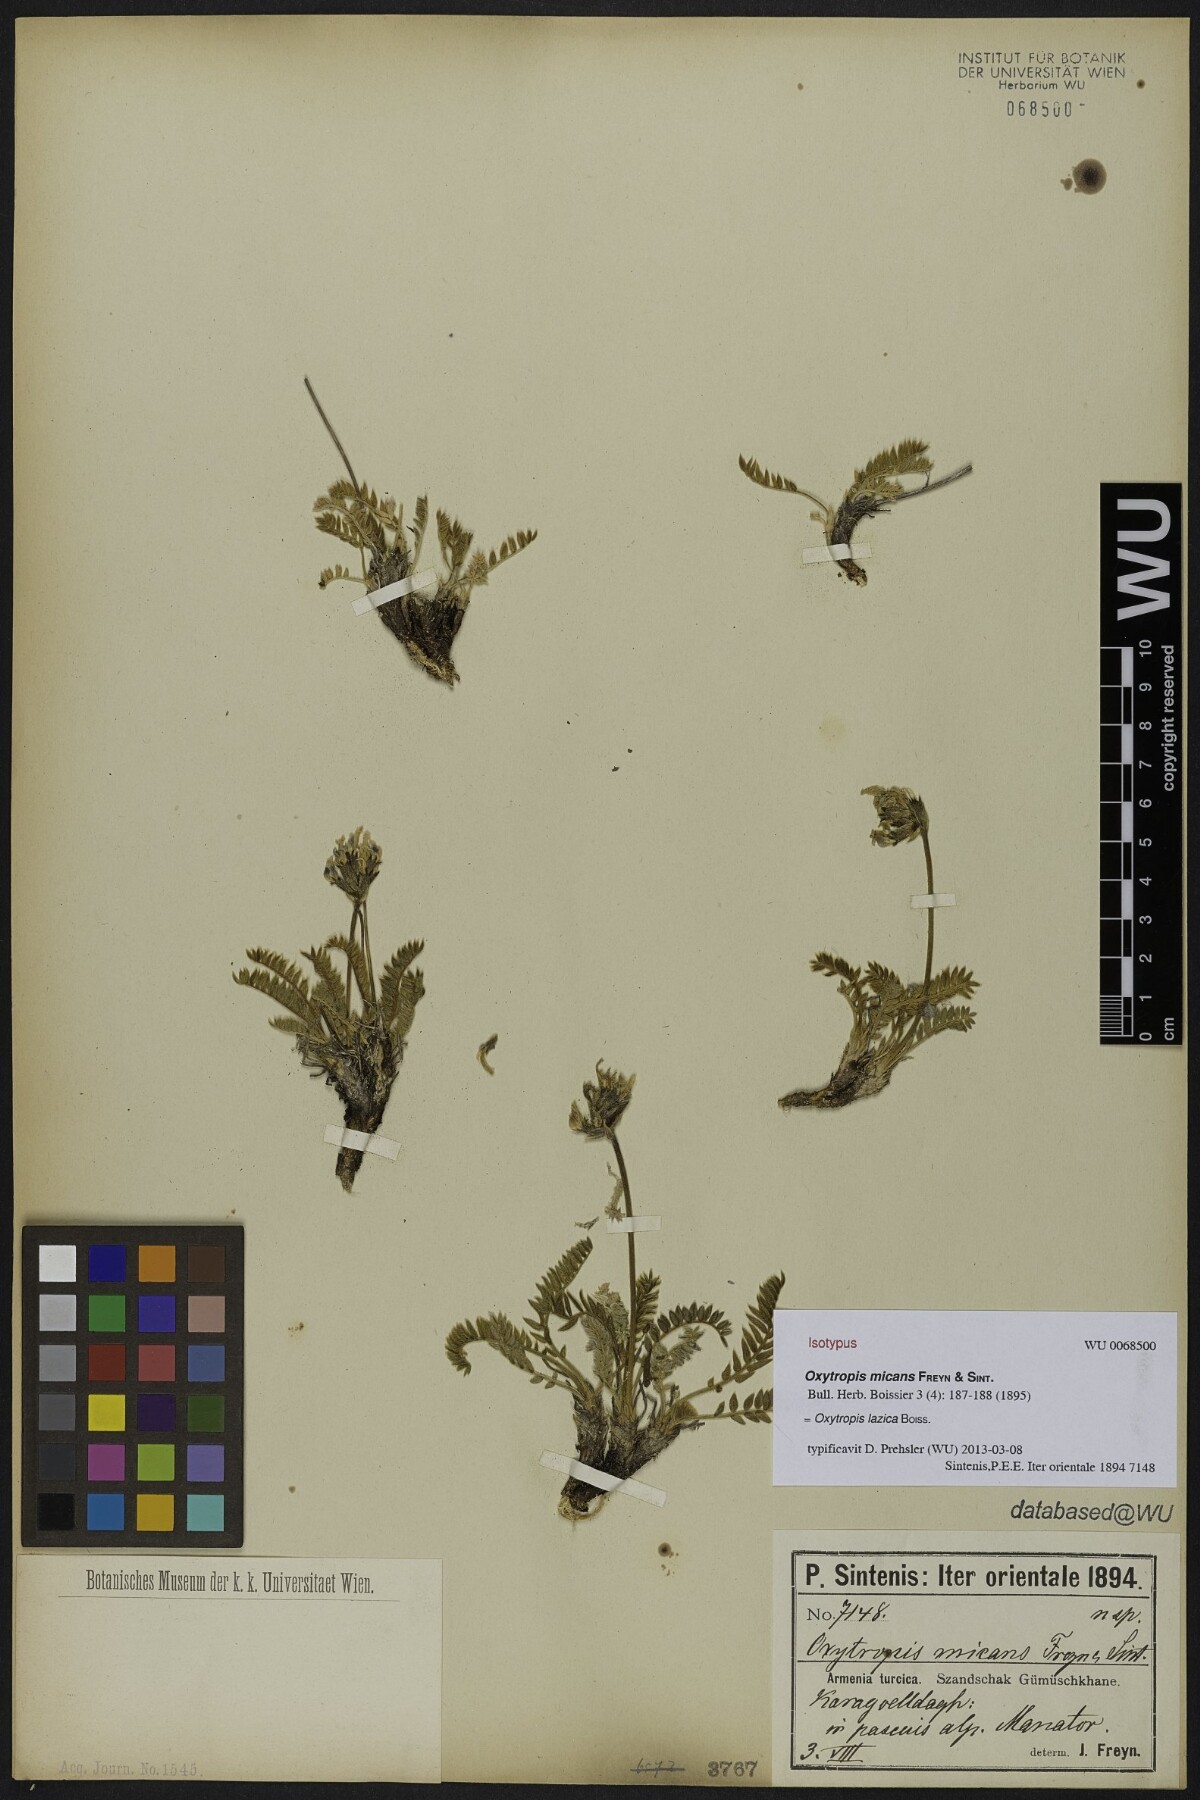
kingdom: Plantae
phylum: Tracheophyta
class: Magnoliopsida
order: Fabales
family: Fabaceae
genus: Oxytropis
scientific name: Oxytropis lazica
